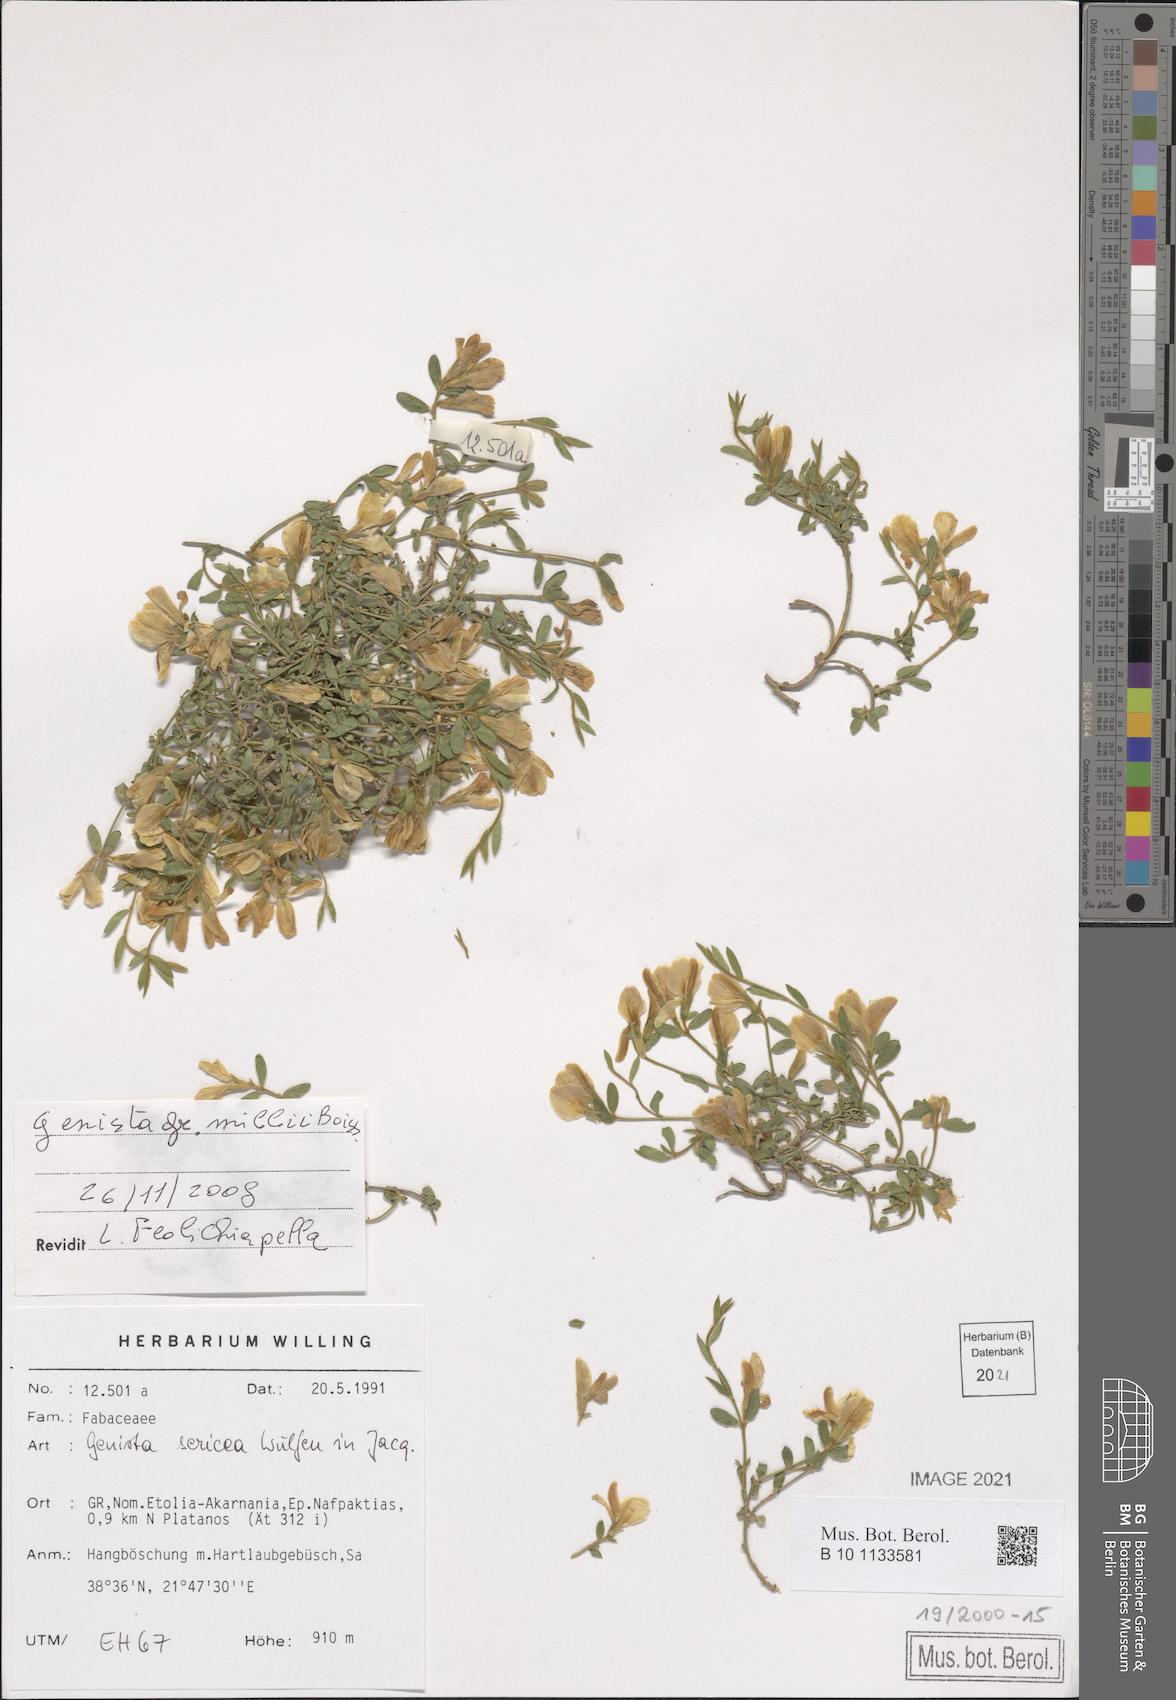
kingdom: Plantae
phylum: Tracheophyta
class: Magnoliopsida
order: Fabales
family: Fabaceae
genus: Genista
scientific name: Genista millii
